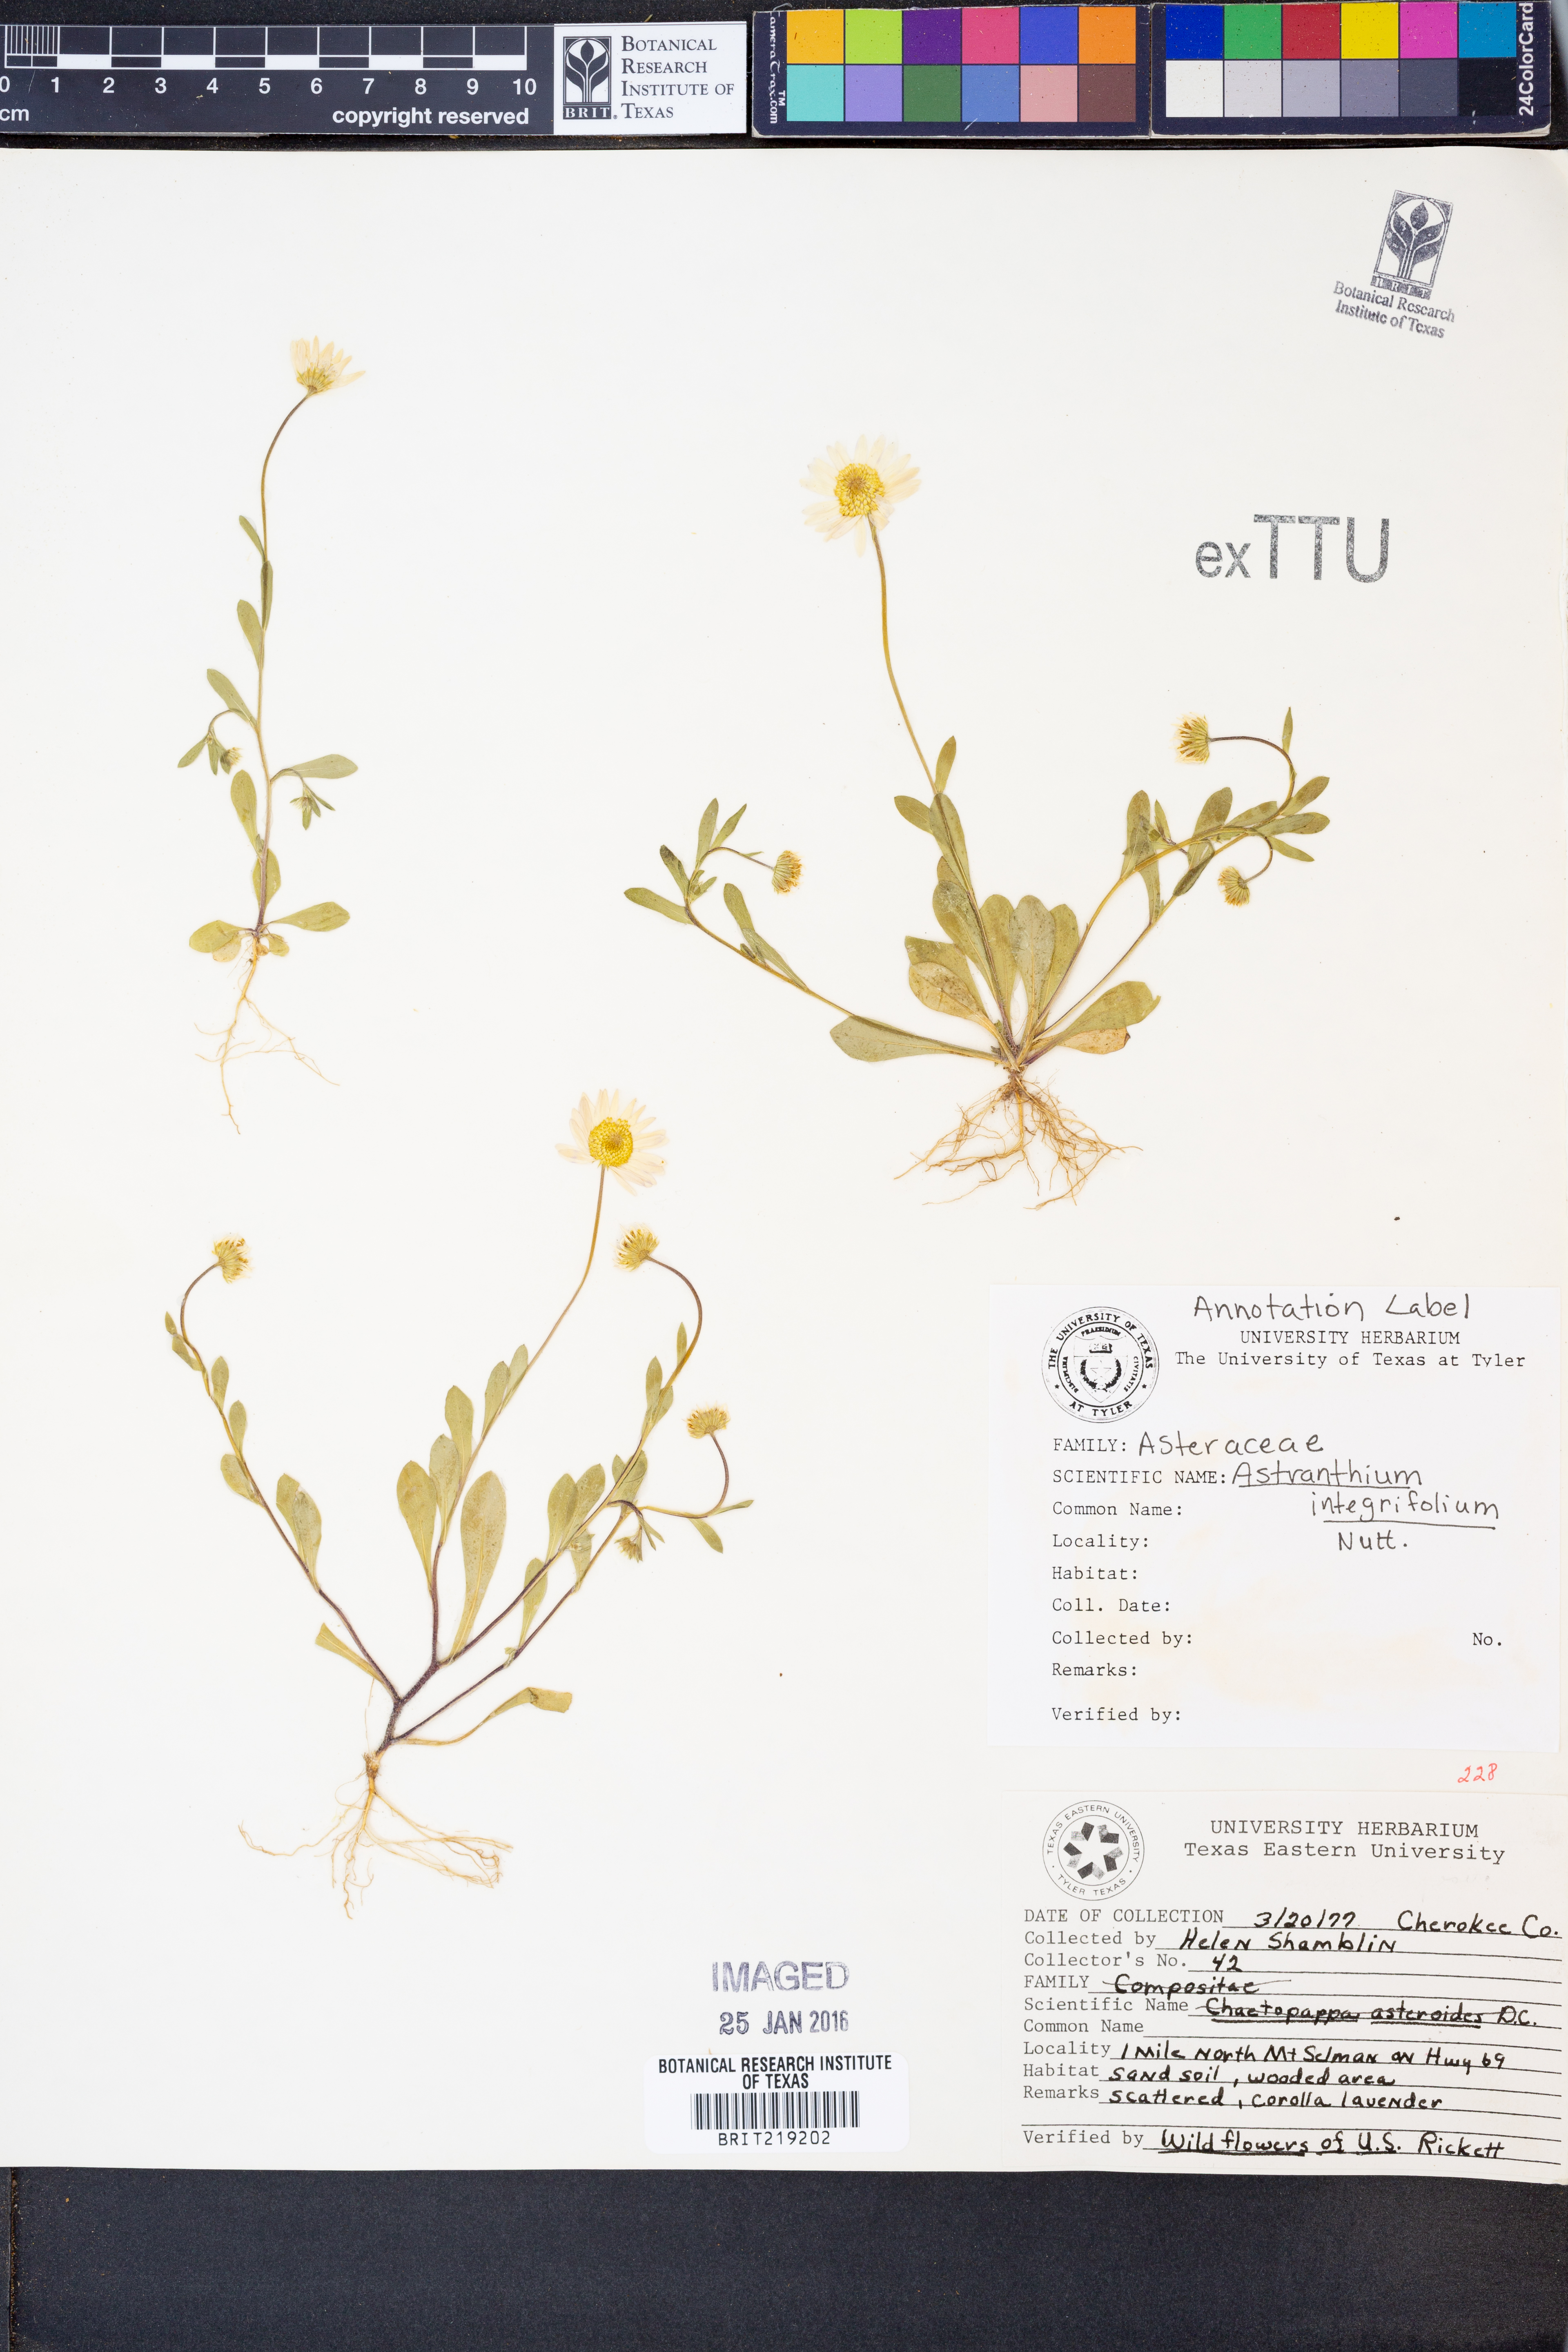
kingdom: Plantae
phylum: Tracheophyta
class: Magnoliopsida
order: Asterales
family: Asteraceae
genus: Astranthium
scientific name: Astranthium integrifolium
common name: Western daisy
